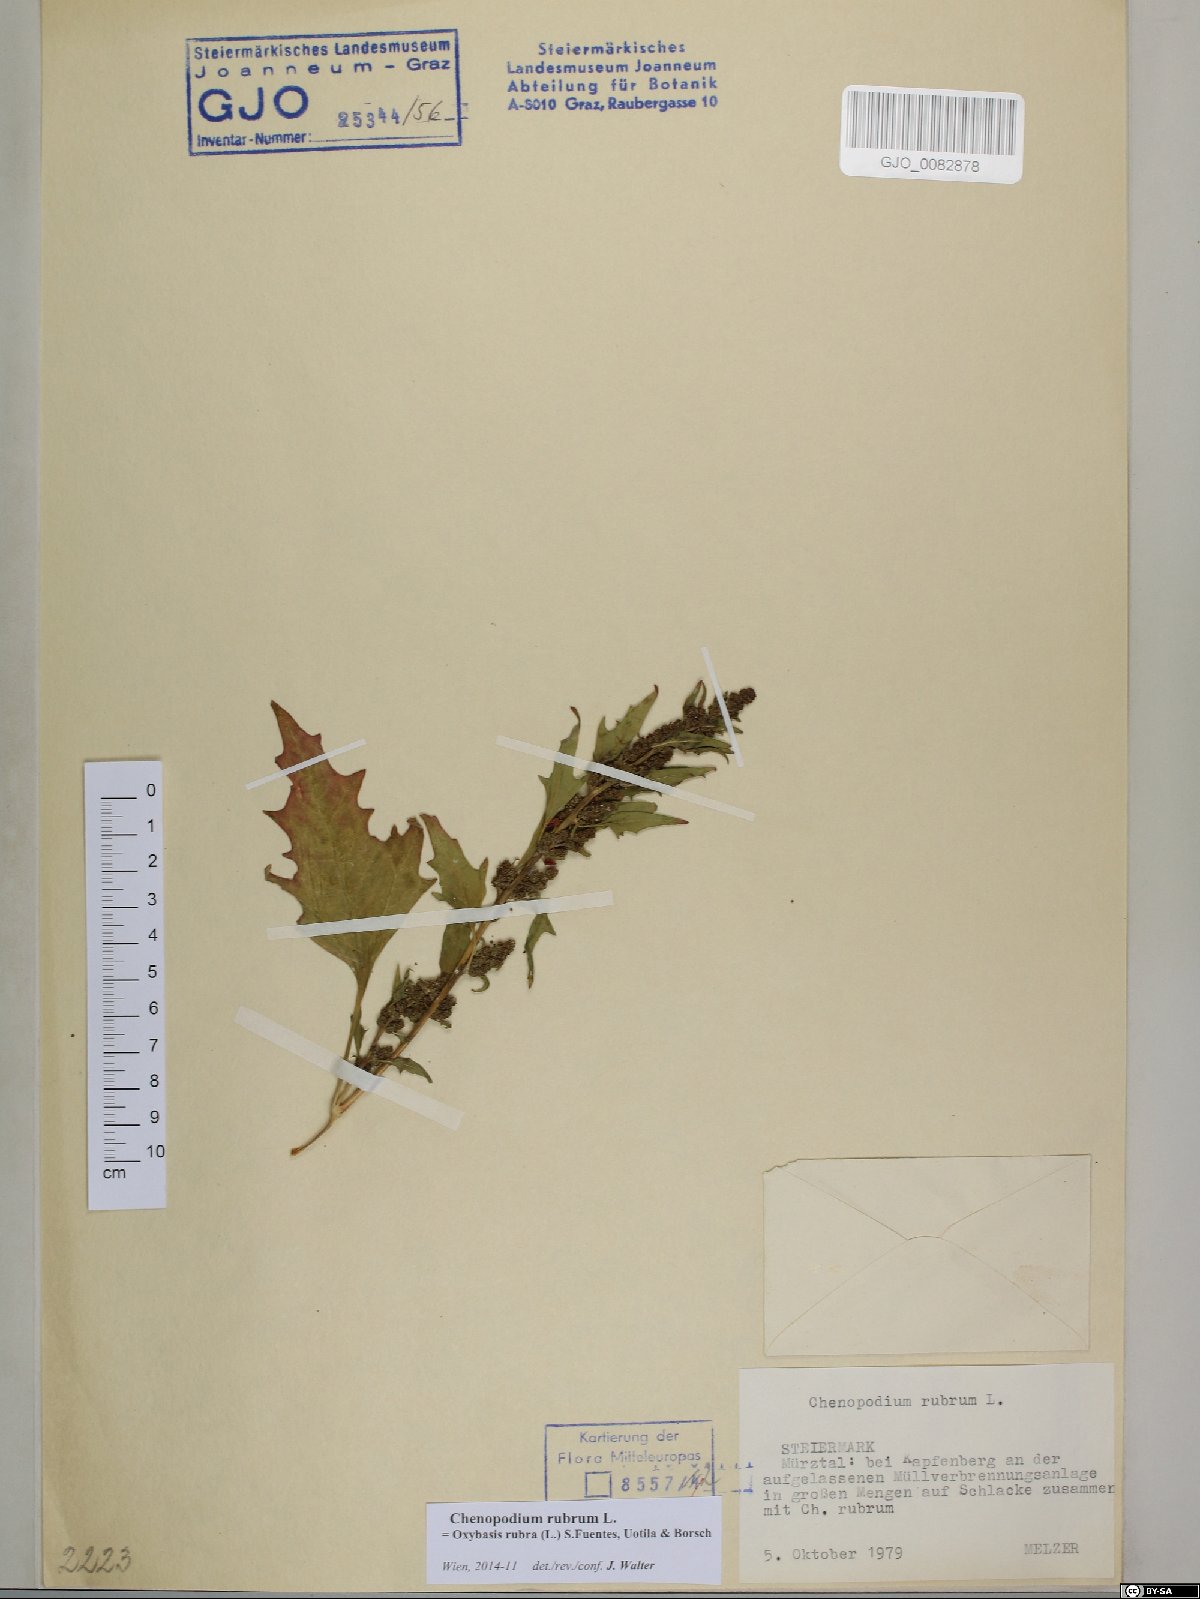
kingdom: Plantae
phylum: Tracheophyta
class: Magnoliopsida
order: Caryophyllales
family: Amaranthaceae
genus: Oxybasis
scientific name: Oxybasis rubra
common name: Red goosefoot
